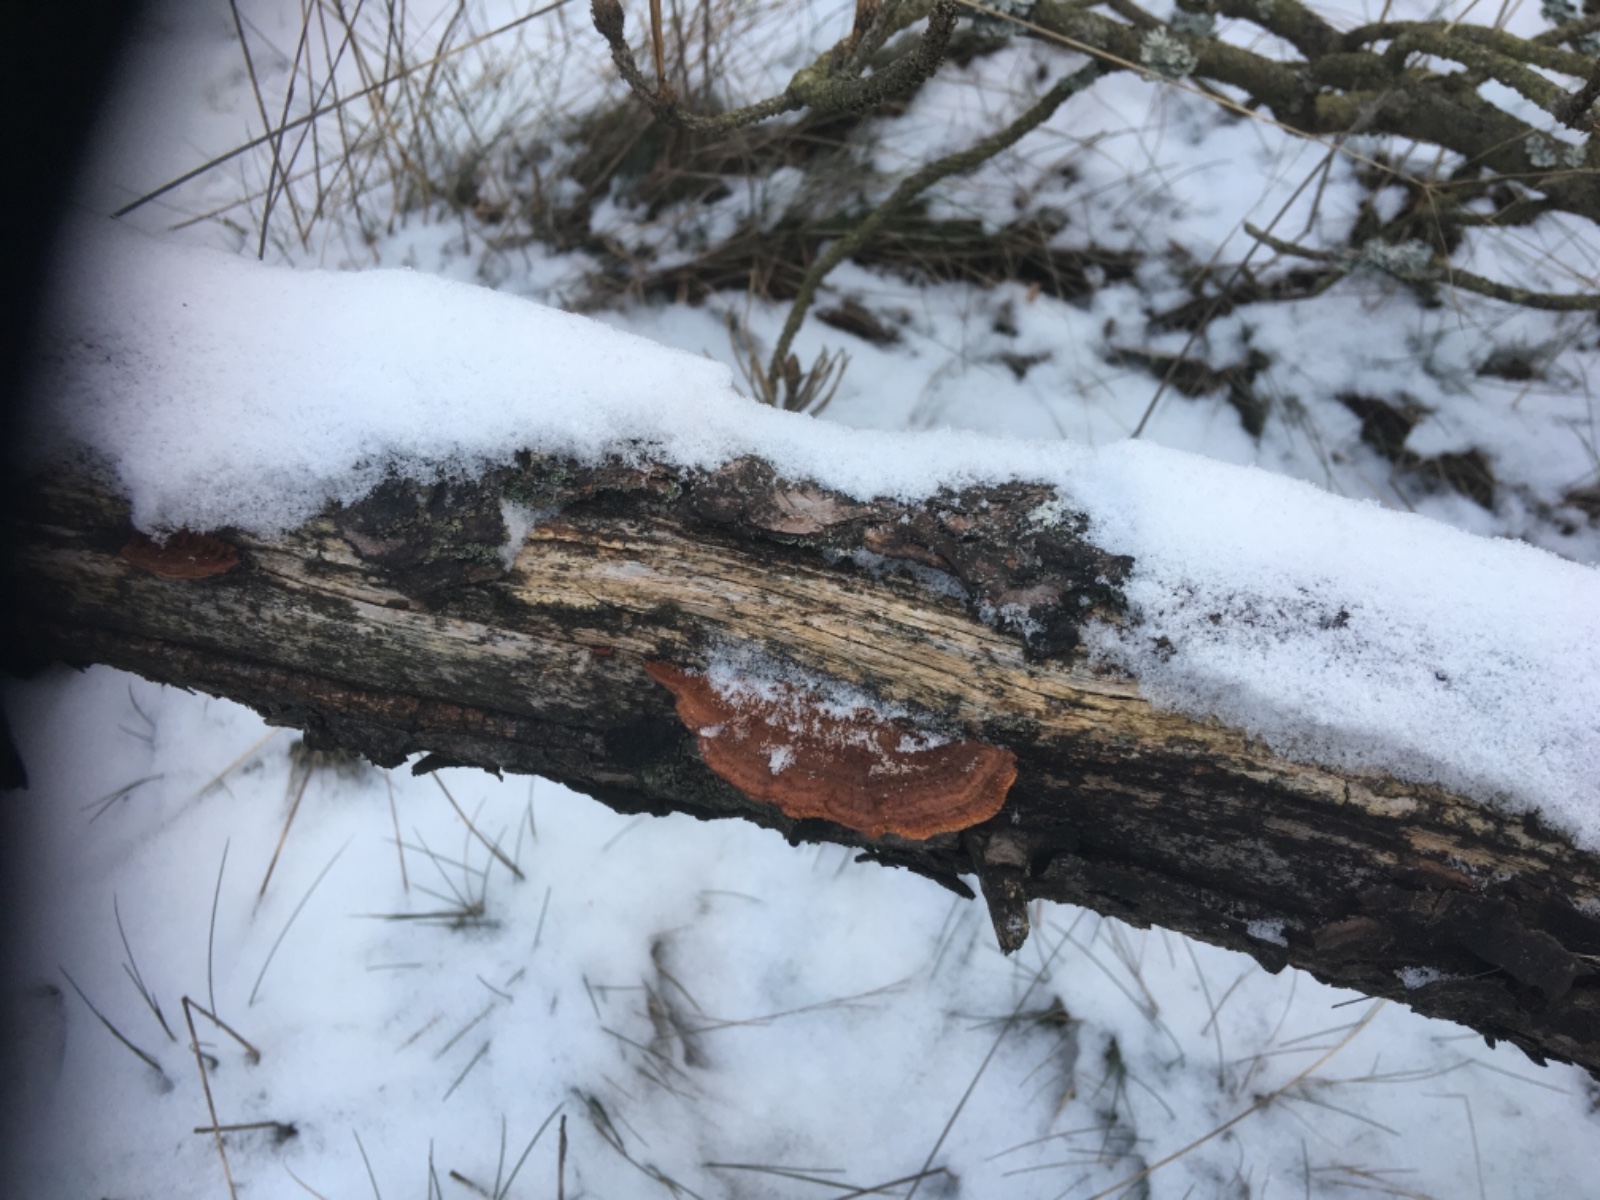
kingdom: Fungi
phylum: Basidiomycota
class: Agaricomycetes
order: Gloeophyllales
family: Gloeophyllaceae
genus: Gloeophyllum
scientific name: Gloeophyllum sepiarium
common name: fyrre-korkhat
